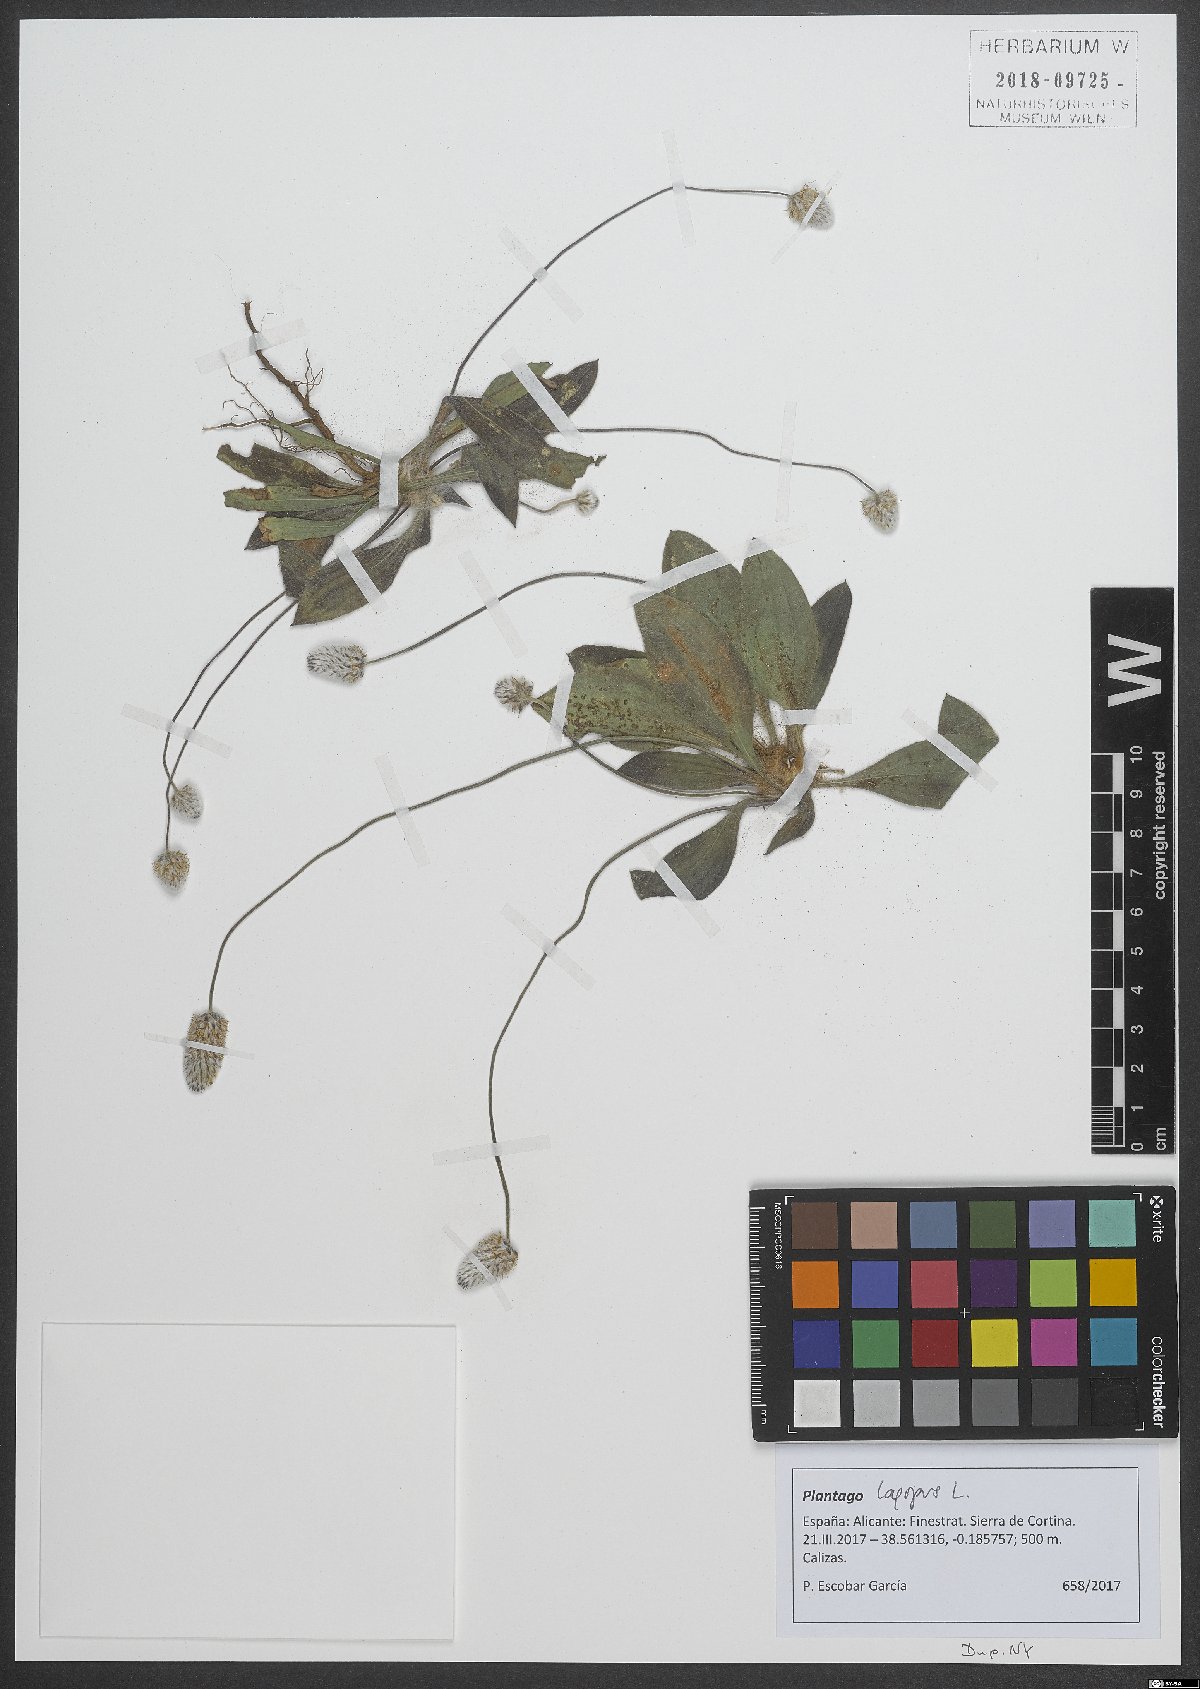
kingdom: Plantae
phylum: Tracheophyta
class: Magnoliopsida
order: Lamiales
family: Plantaginaceae
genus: Plantago
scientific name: Plantago lagopus
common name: Hare-foot plantain
